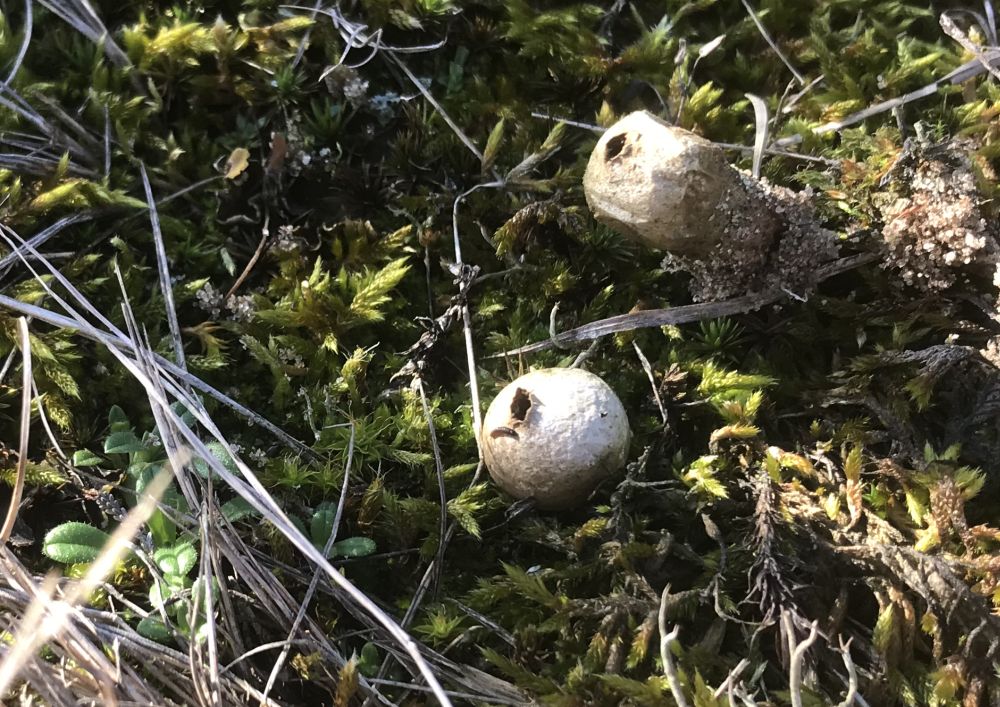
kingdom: Fungi
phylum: Basidiomycota
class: Agaricomycetes
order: Agaricales
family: Lycoperdaceae
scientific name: Lycoperdaceae
